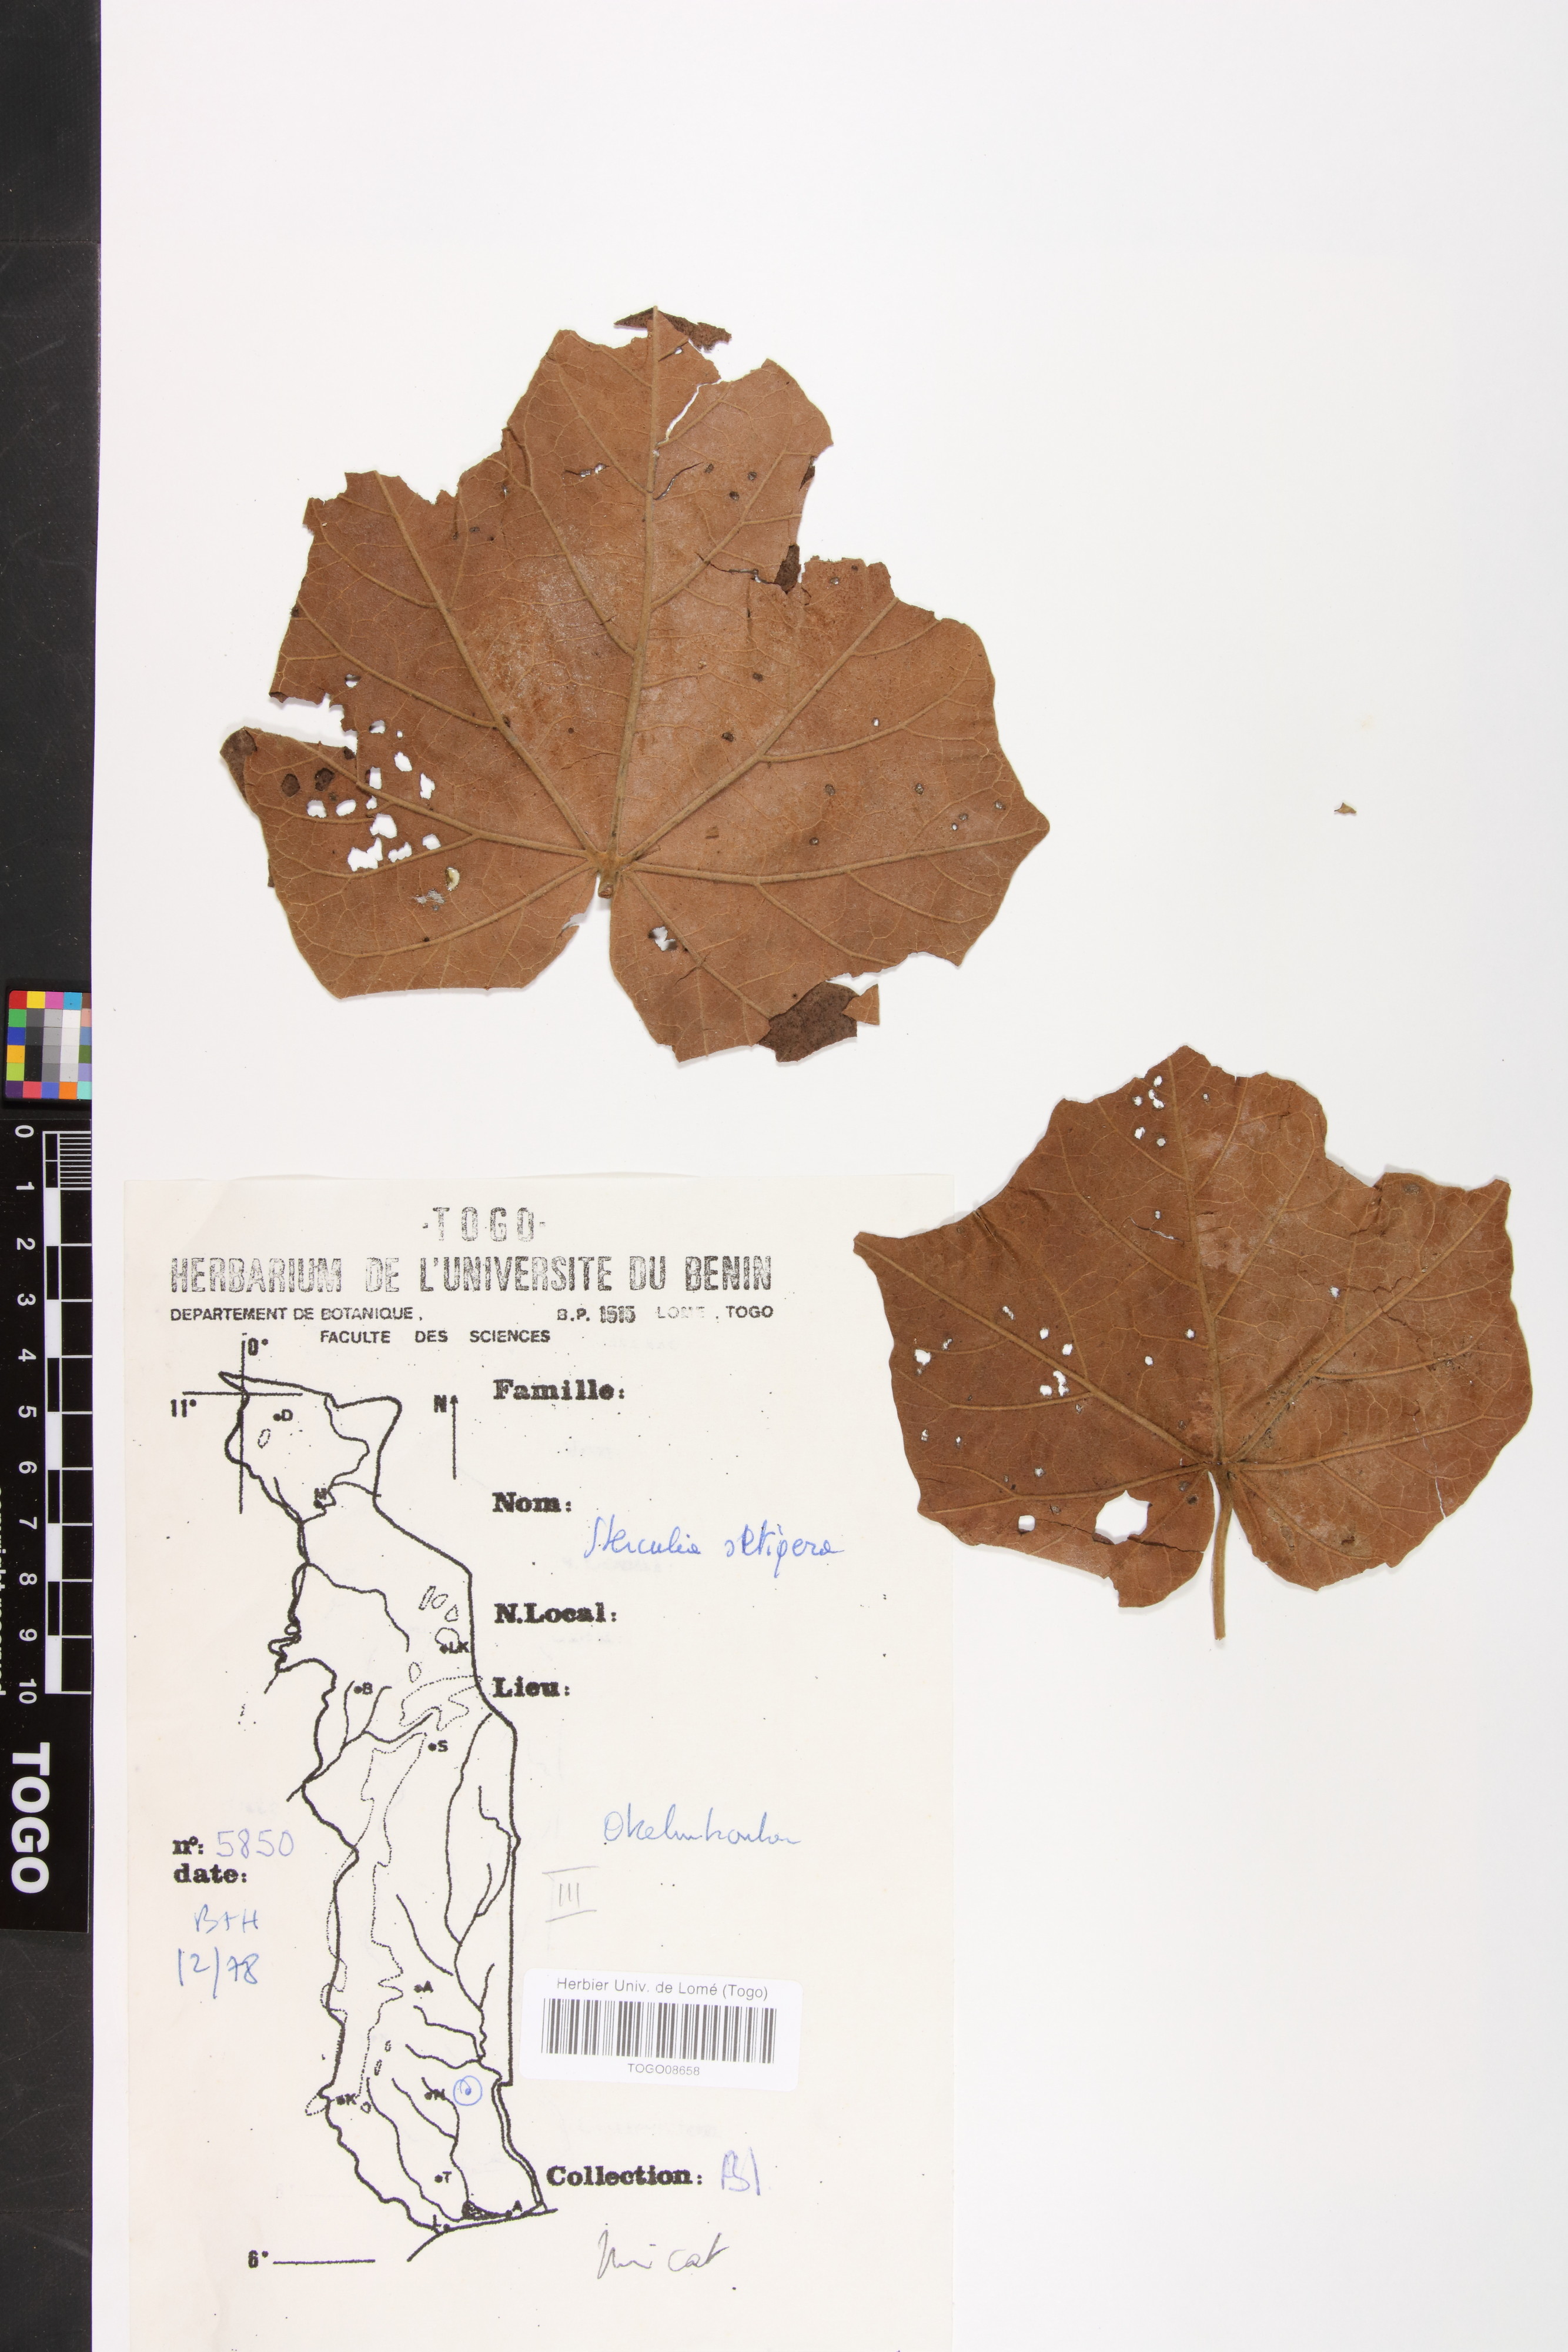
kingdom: Plantae
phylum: Tracheophyta
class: Magnoliopsida
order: Malvales
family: Malvaceae
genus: Sterculia
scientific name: Sterculia setigera
